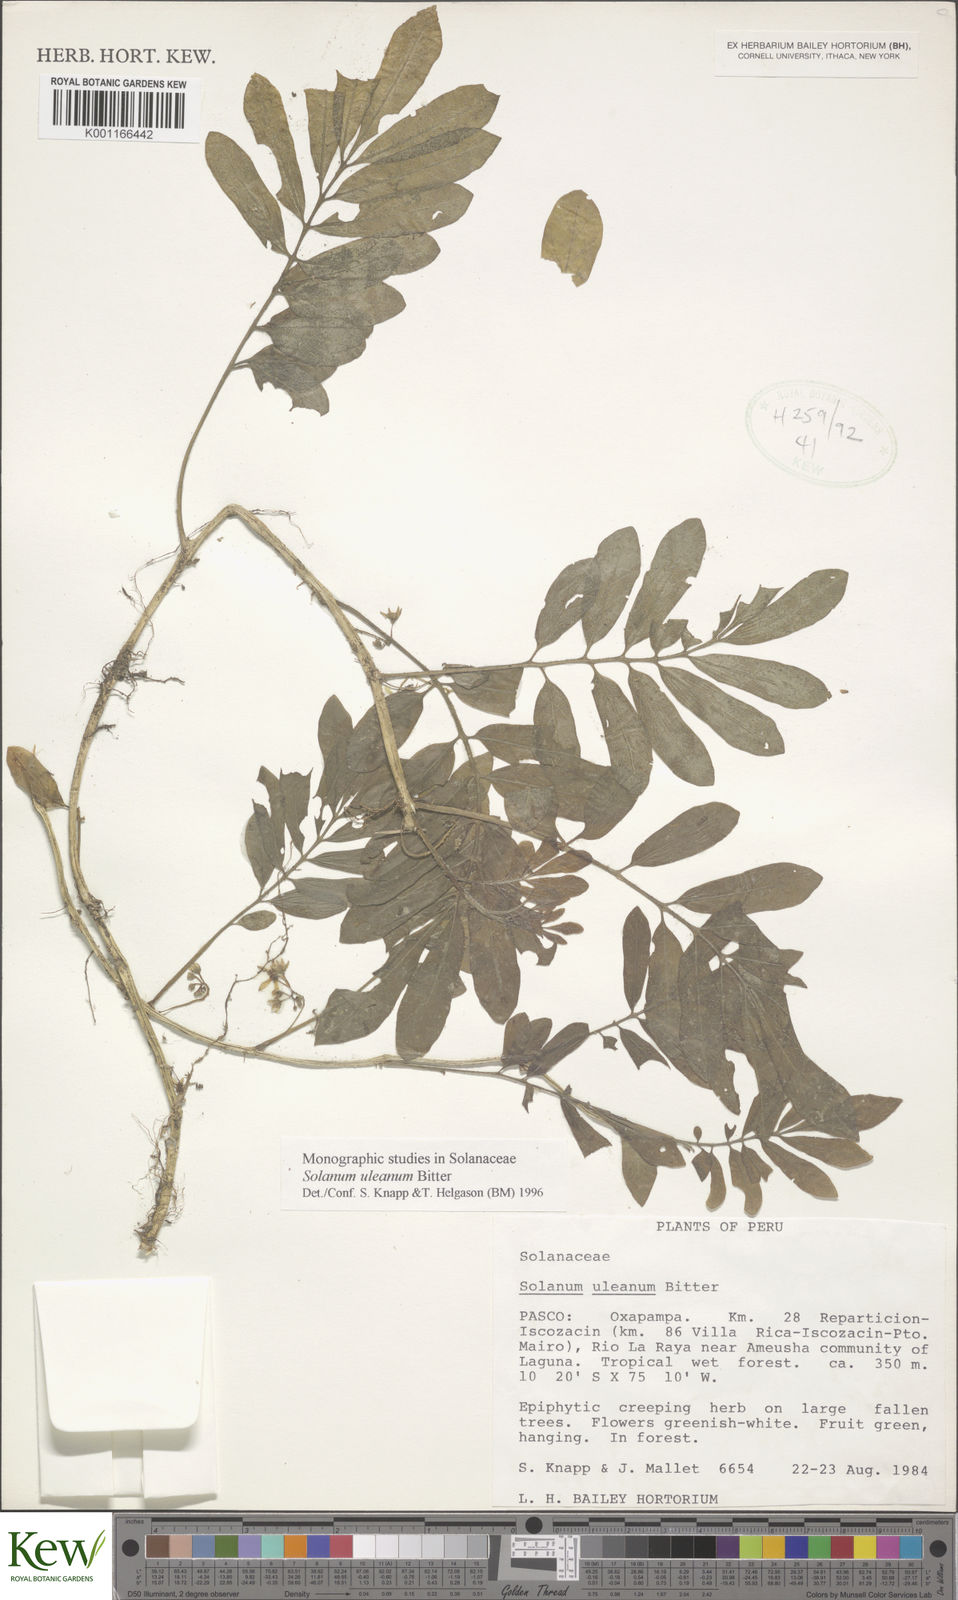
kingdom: Plantae
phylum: Tracheophyta
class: Magnoliopsida
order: Solanales
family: Solanaceae
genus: Solanum
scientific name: Solanum uleanum
